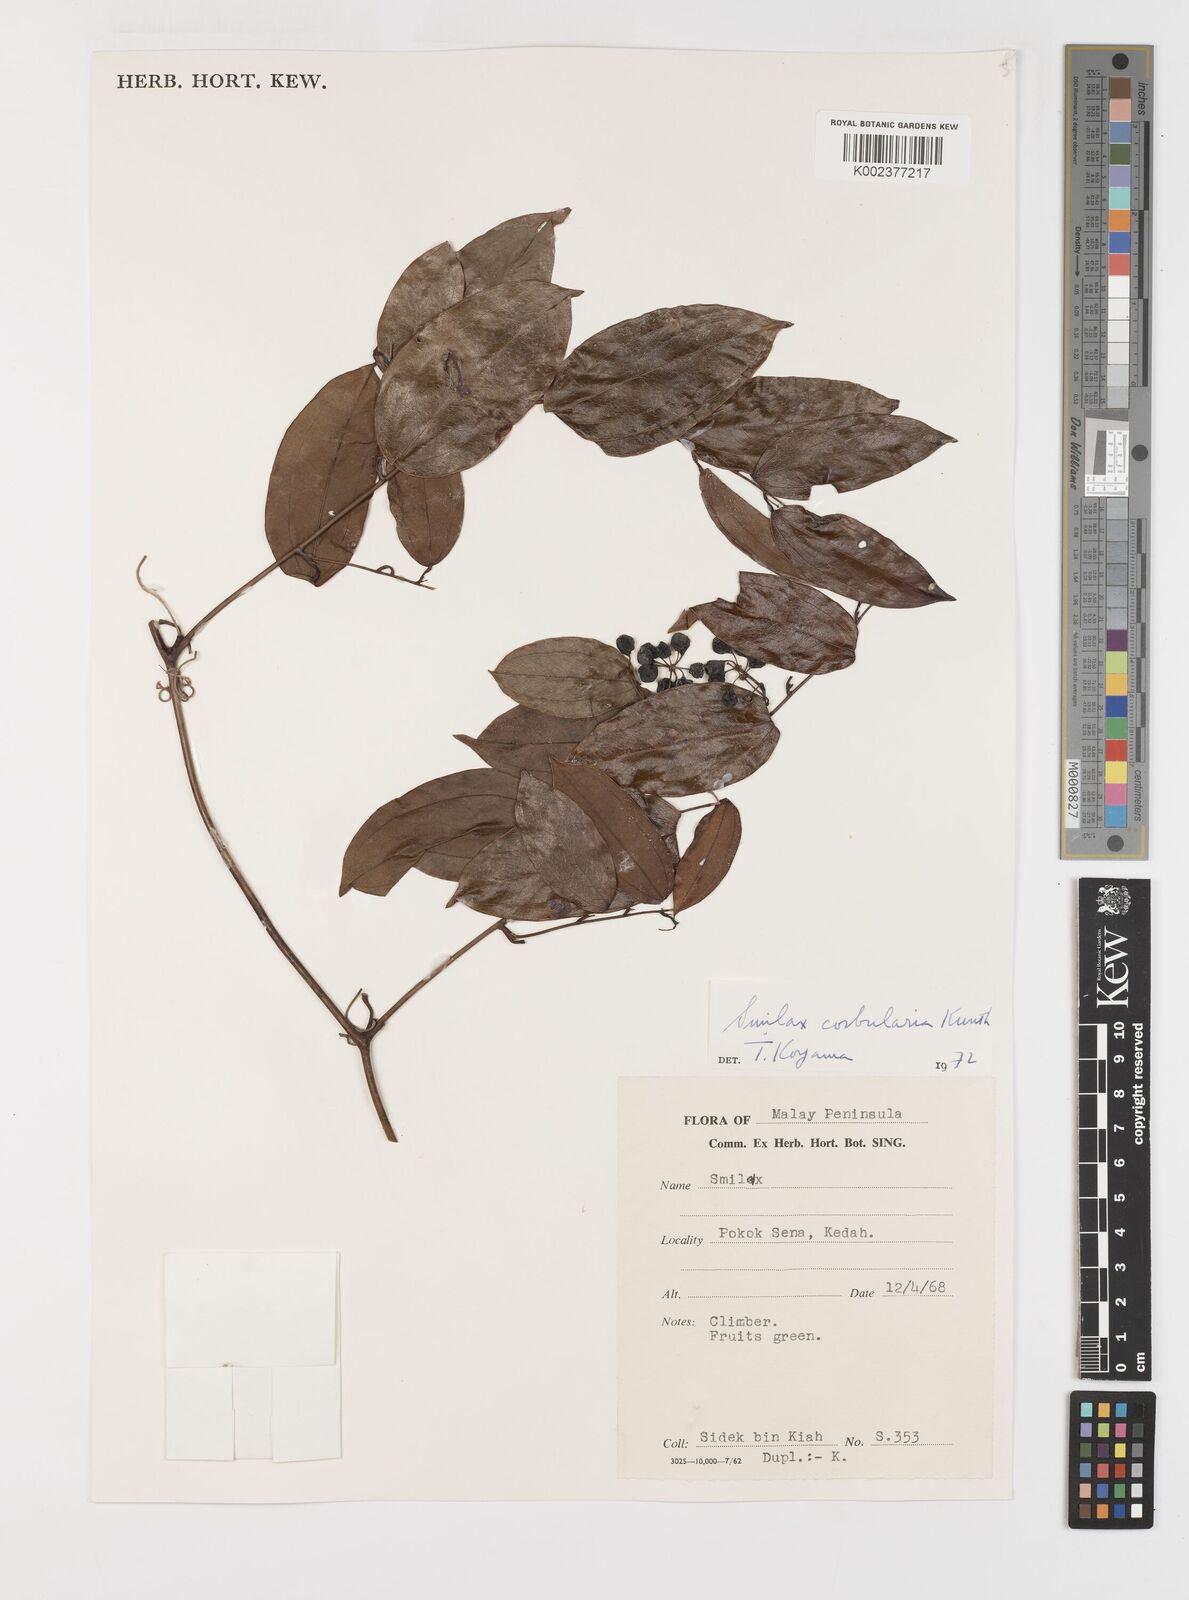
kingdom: Plantae
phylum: Tracheophyta
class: Liliopsida
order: Liliales
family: Smilacaceae
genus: Smilax
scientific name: Smilax corbularia
